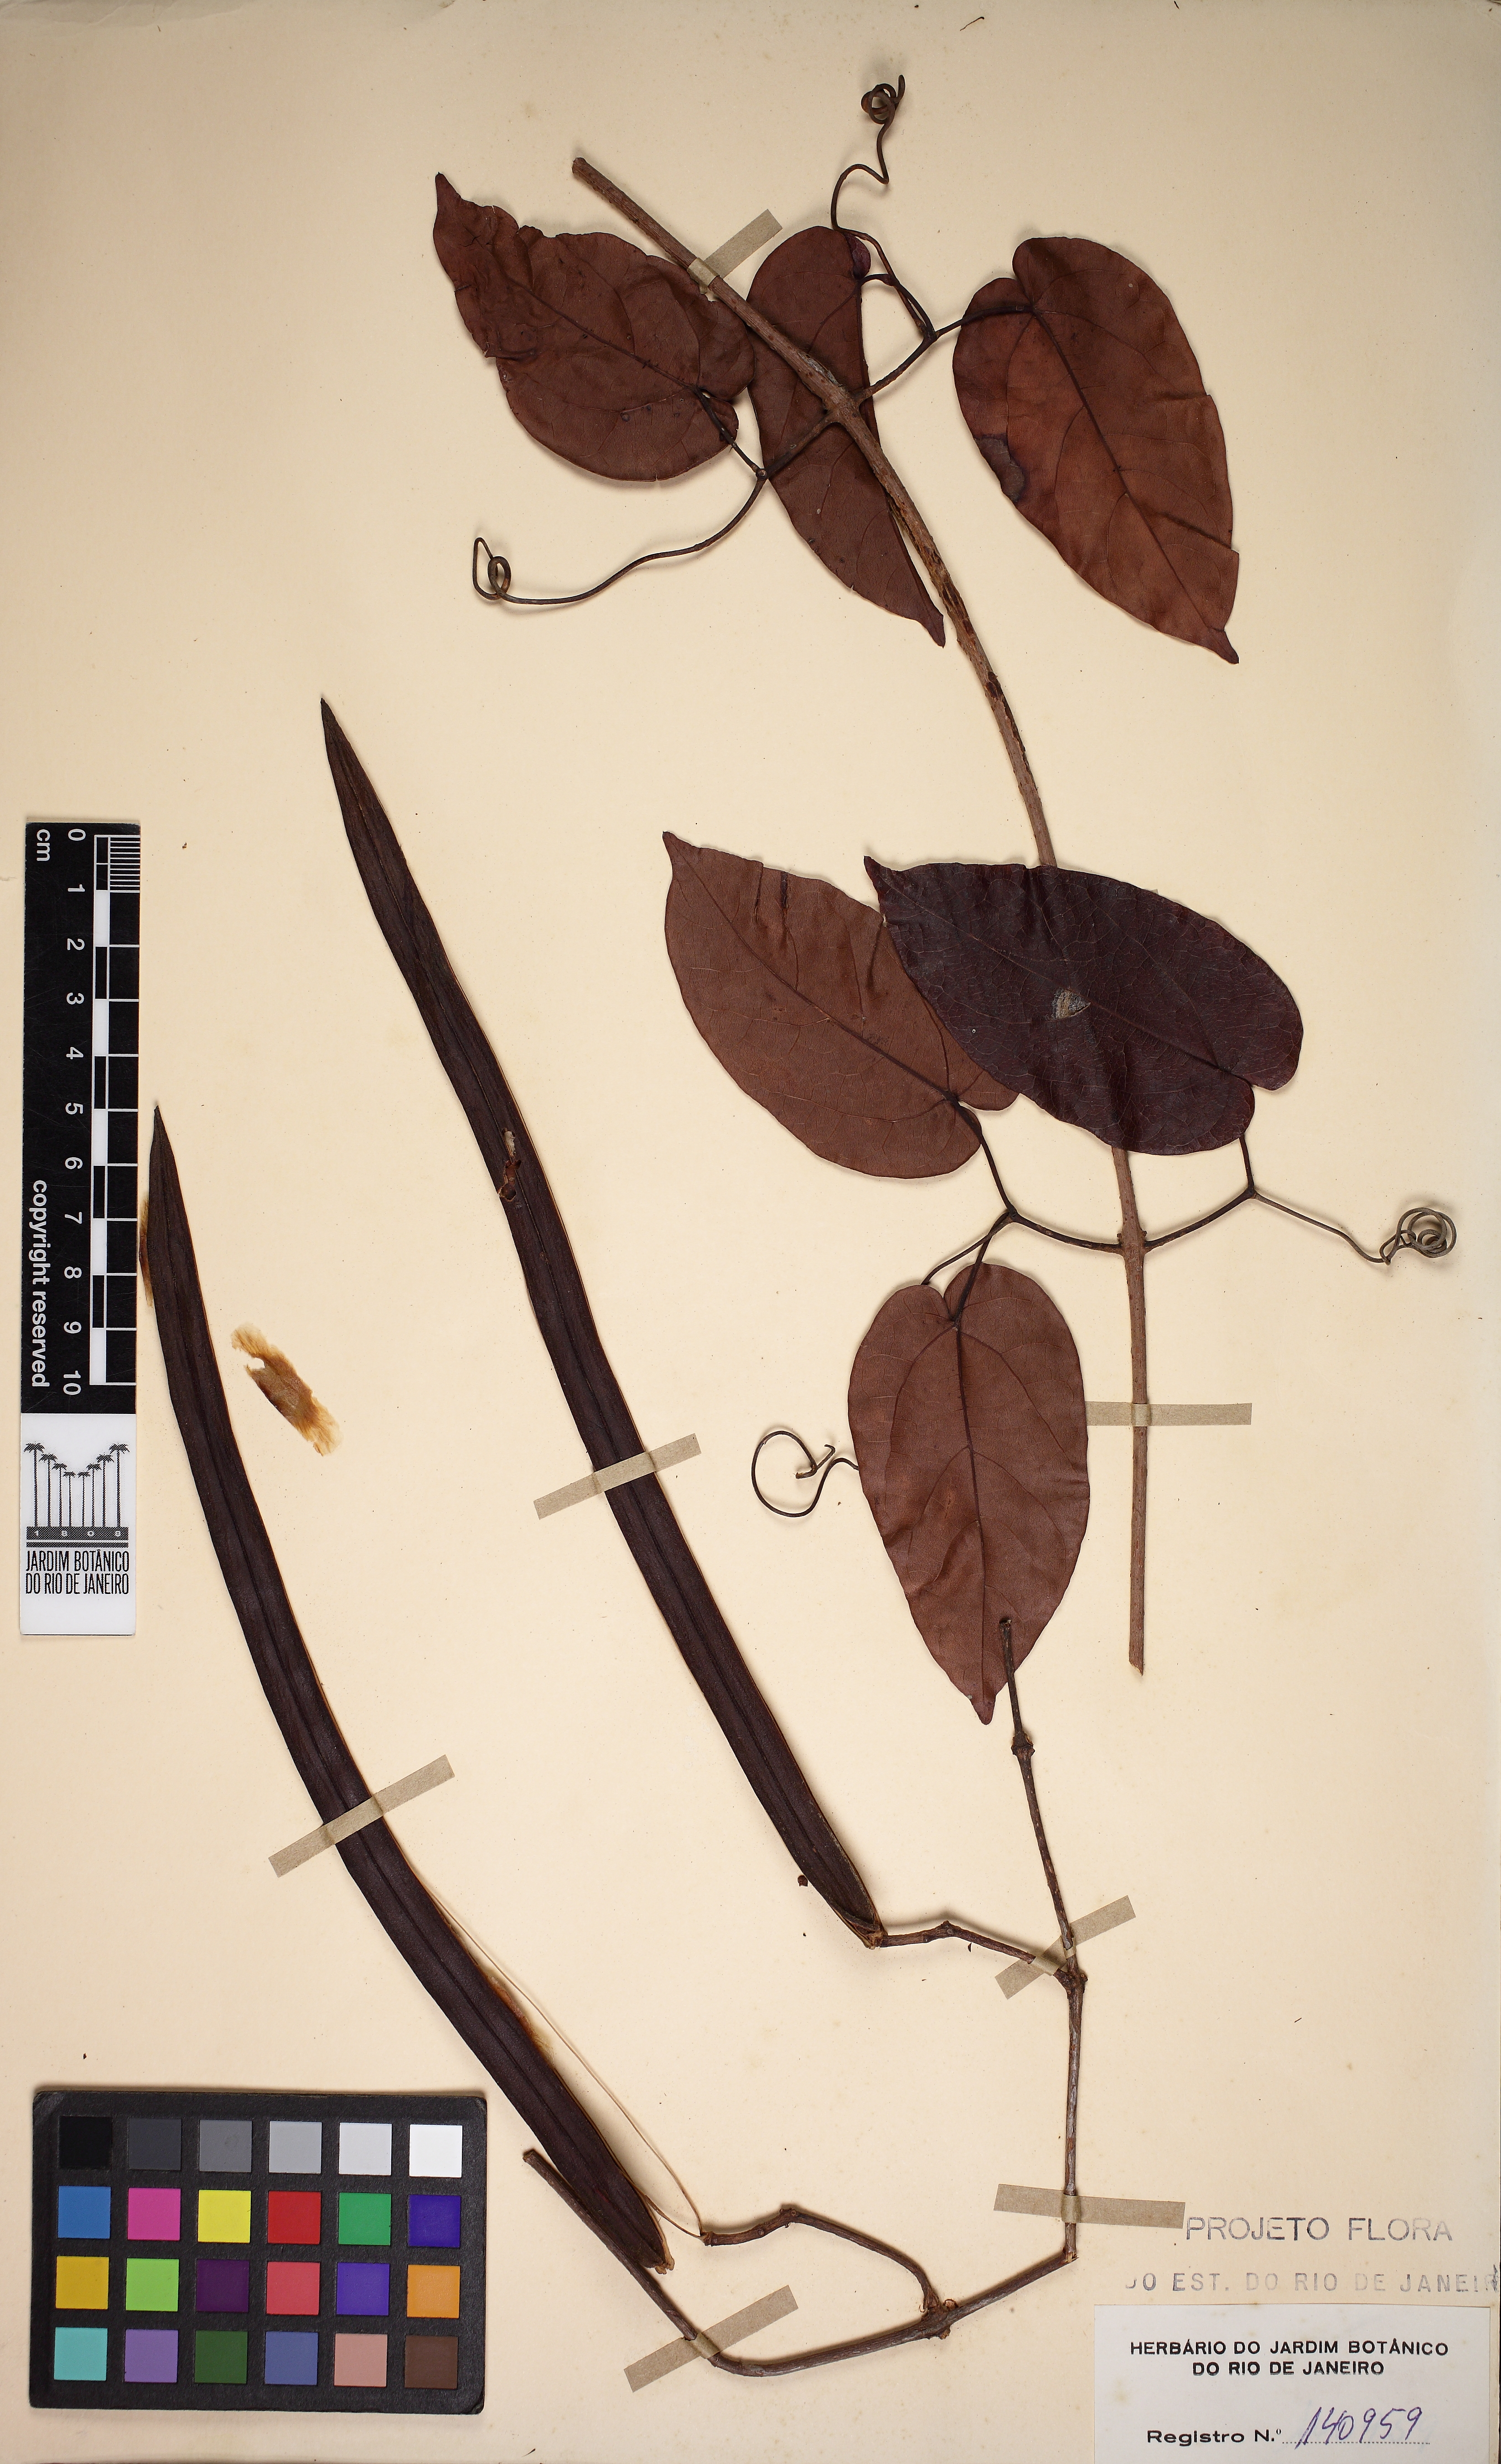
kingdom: Plantae
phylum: Tracheophyta
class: Magnoliopsida
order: Lamiales
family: Bignoniaceae
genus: Lundia
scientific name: Lundia longa
